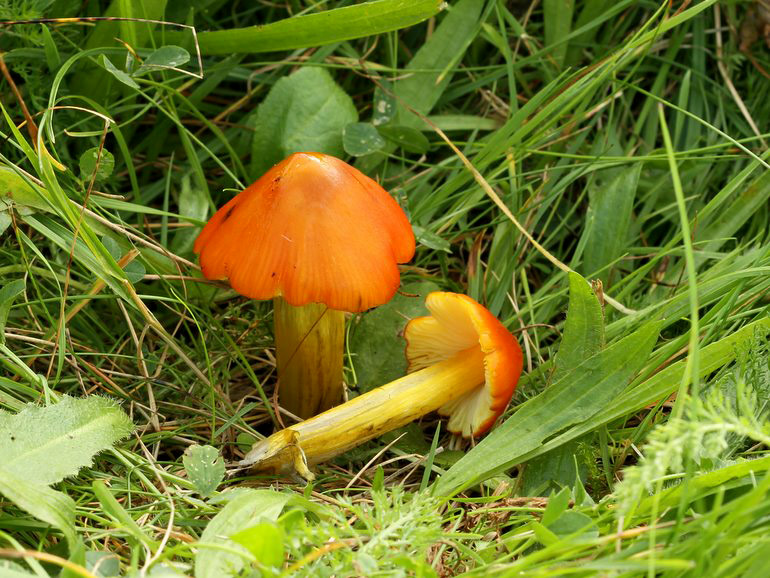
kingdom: Fungi
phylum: Basidiomycota
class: Agaricomycetes
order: Agaricales
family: Hygrophoraceae
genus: Hygrocybe
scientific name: Hygrocybe conica
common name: kegle-vokshat
